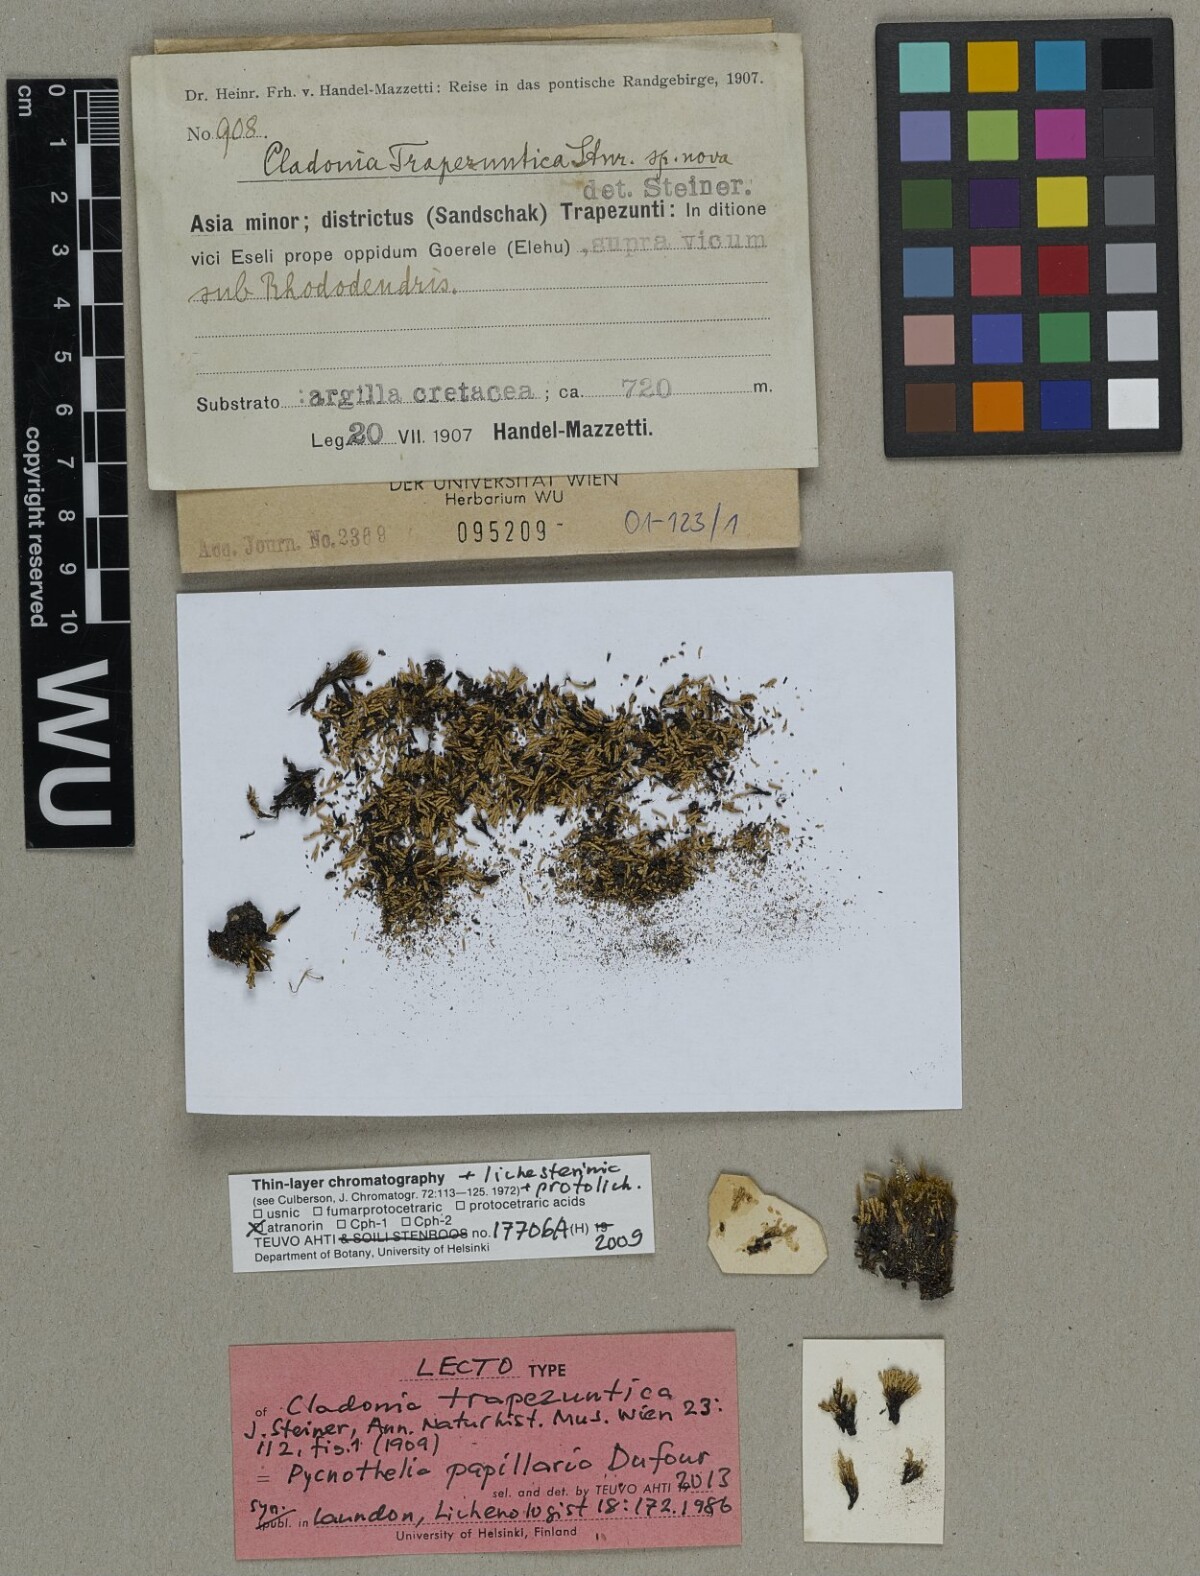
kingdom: Fungi
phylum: Ascomycota
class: Lecanoromycetes
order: Lecanorales
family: Cladoniaceae
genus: Cladonia
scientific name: Cladonia
